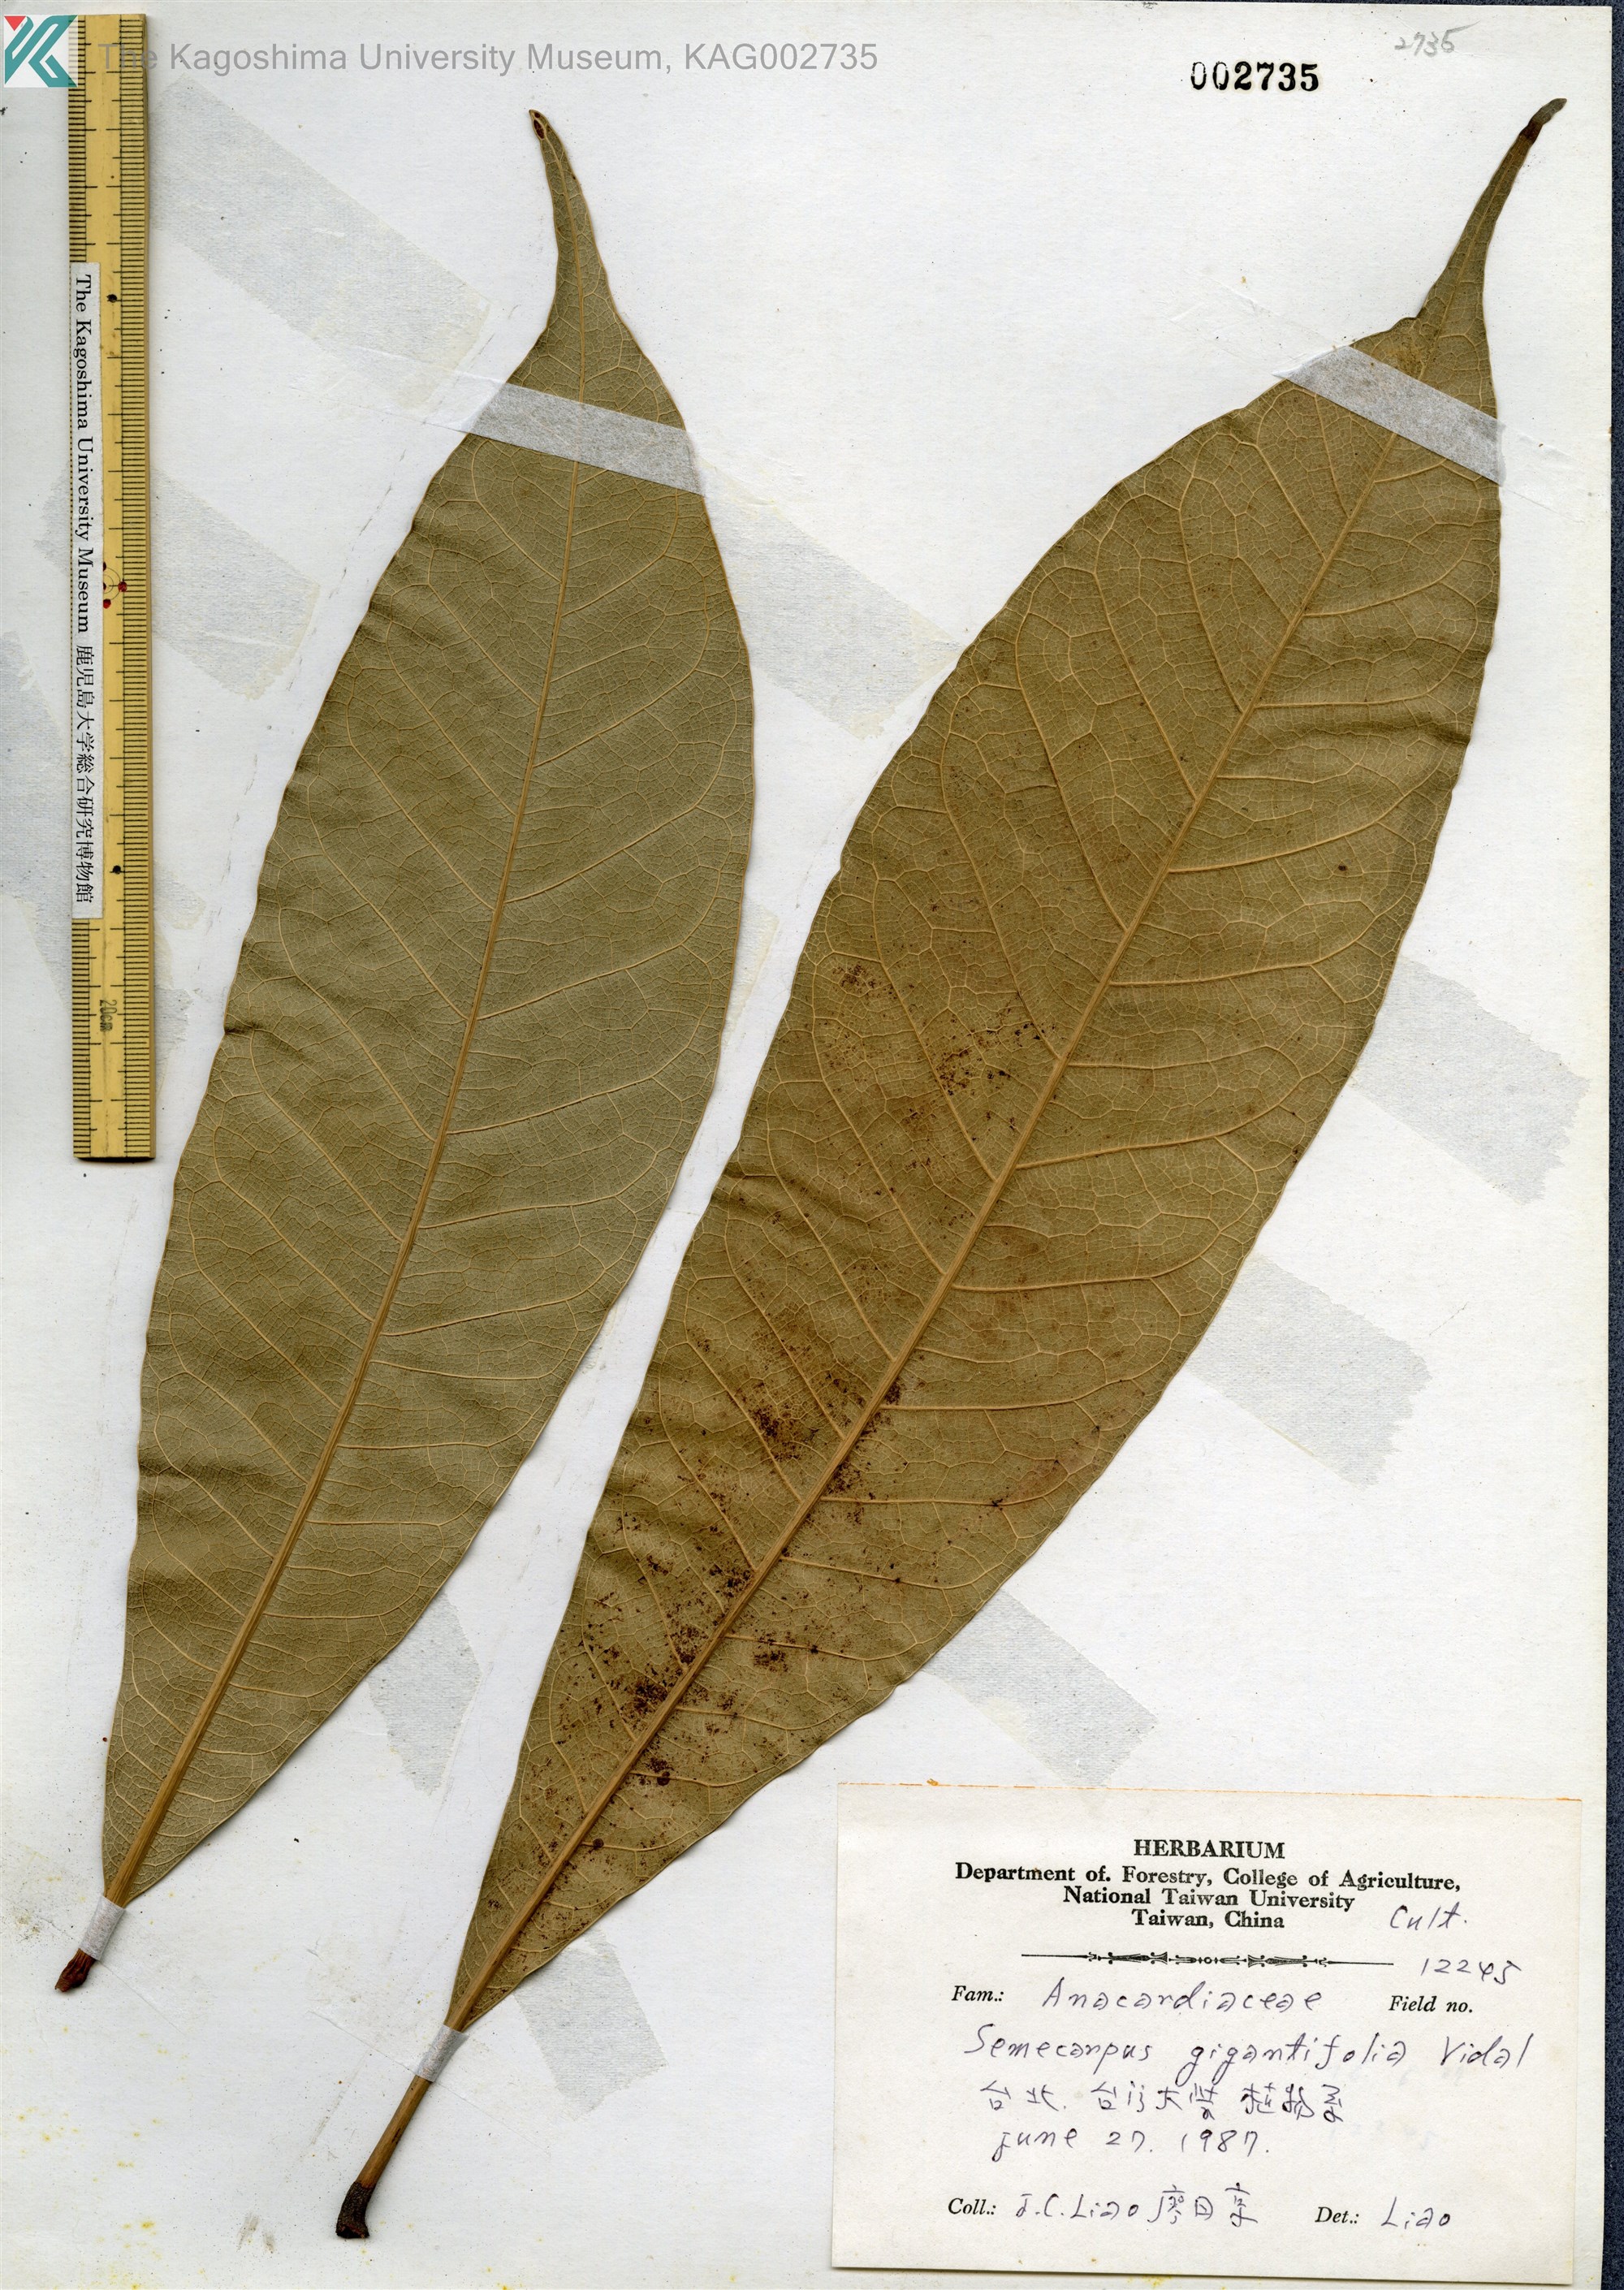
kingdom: Plantae
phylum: Tracheophyta
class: Magnoliopsida
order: Sapindales
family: Anacardiaceae
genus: Semecarpus
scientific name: Semecarpus longifolius
